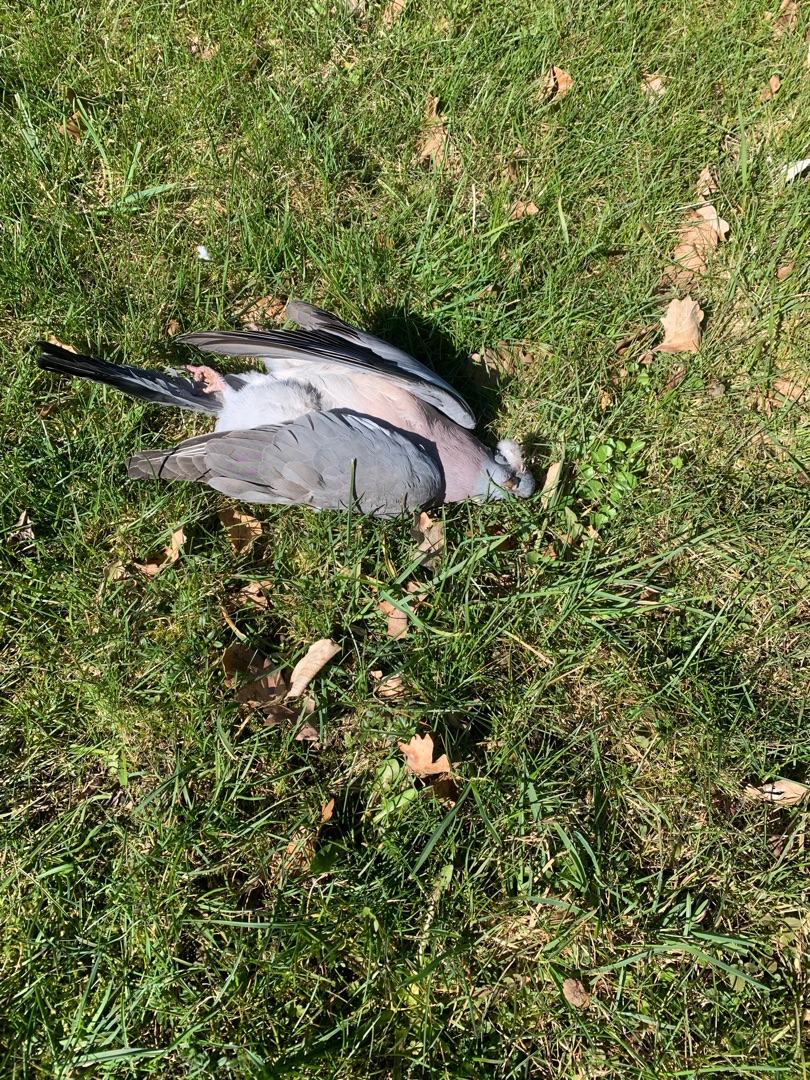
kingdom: Animalia
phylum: Chordata
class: Aves
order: Columbiformes
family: Columbidae
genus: Columba
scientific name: Columba palumbus
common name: Ringdue
